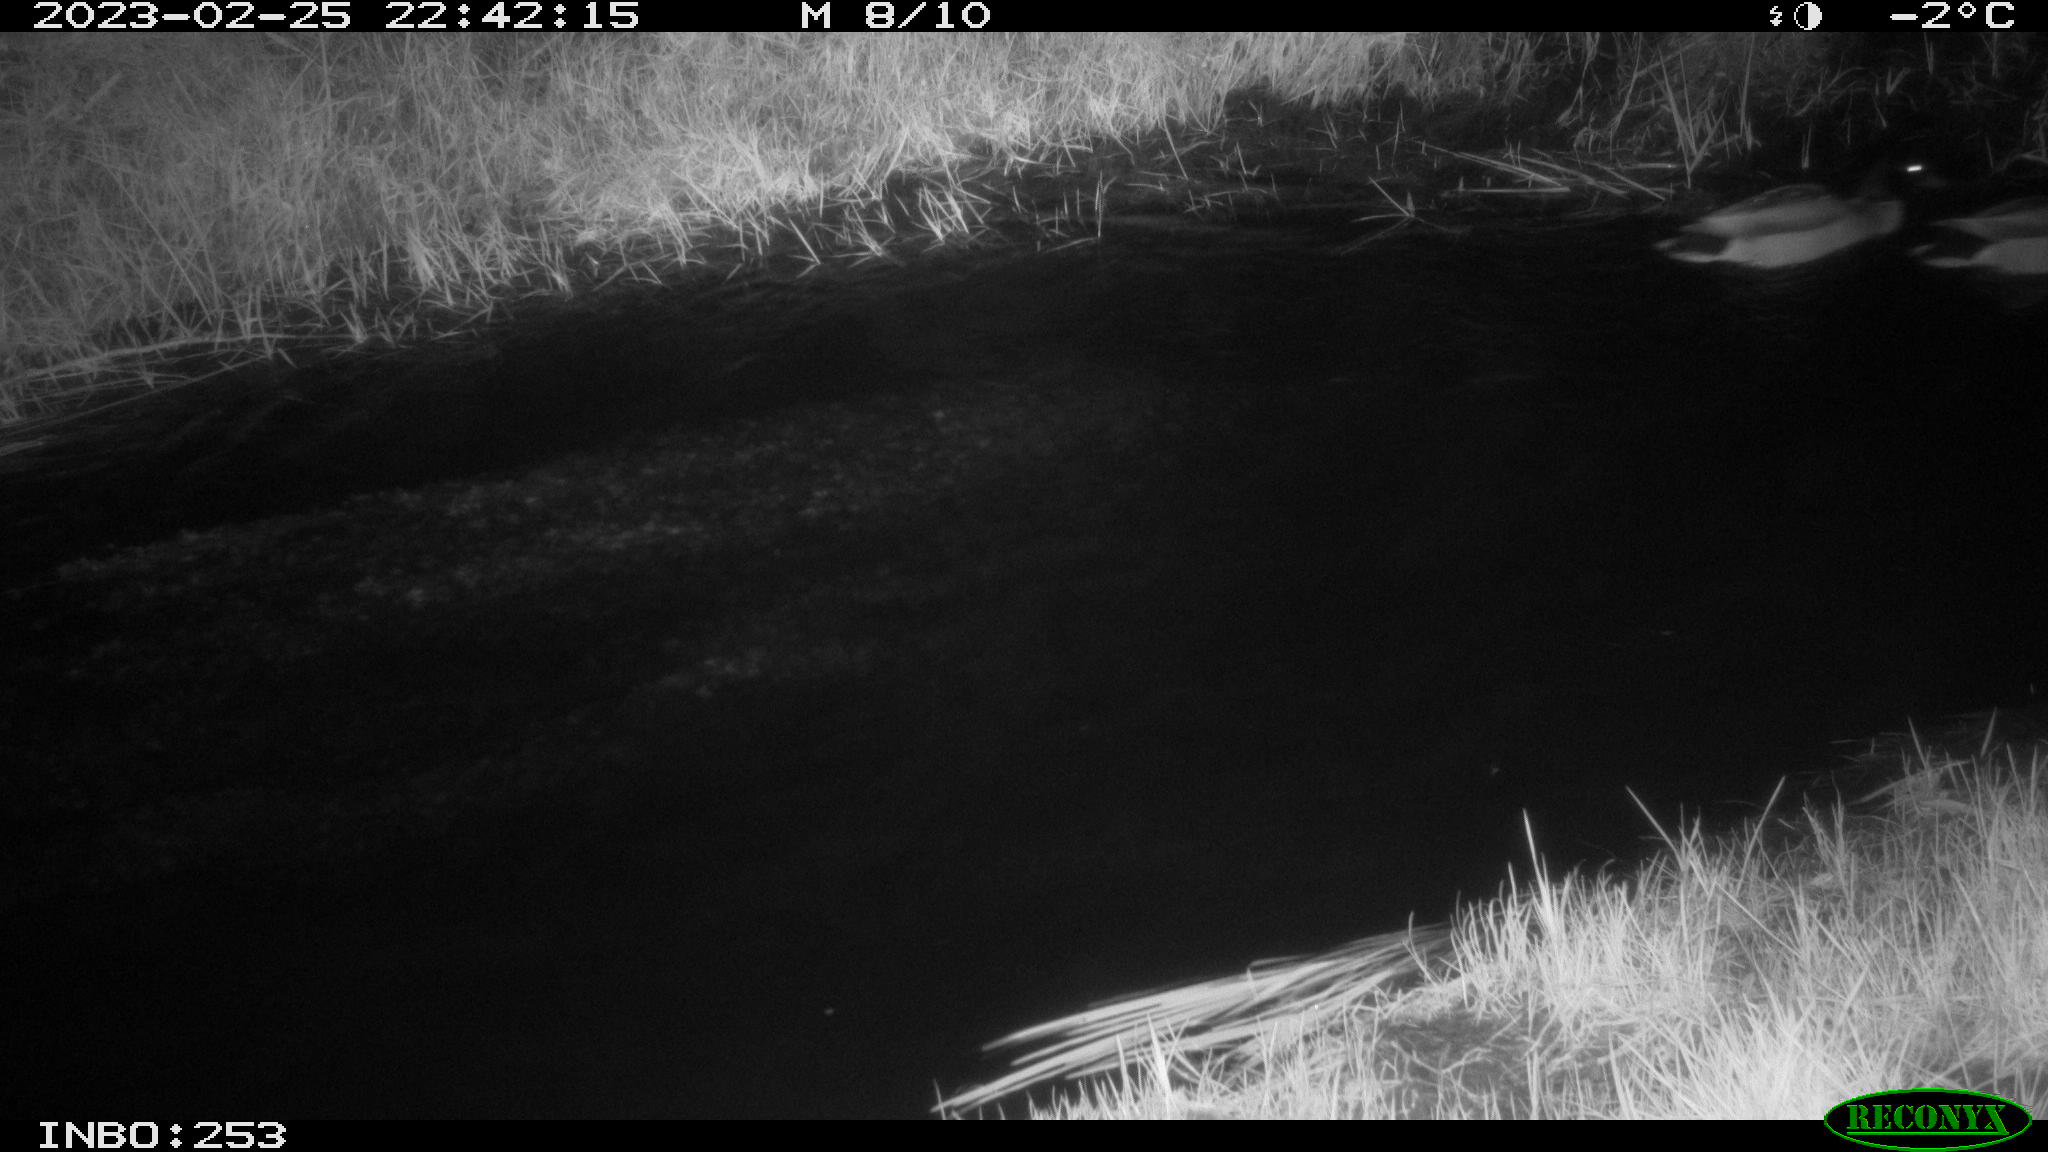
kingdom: Animalia
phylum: Chordata
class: Aves
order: Anseriformes
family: Anatidae
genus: Anas
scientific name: Anas
